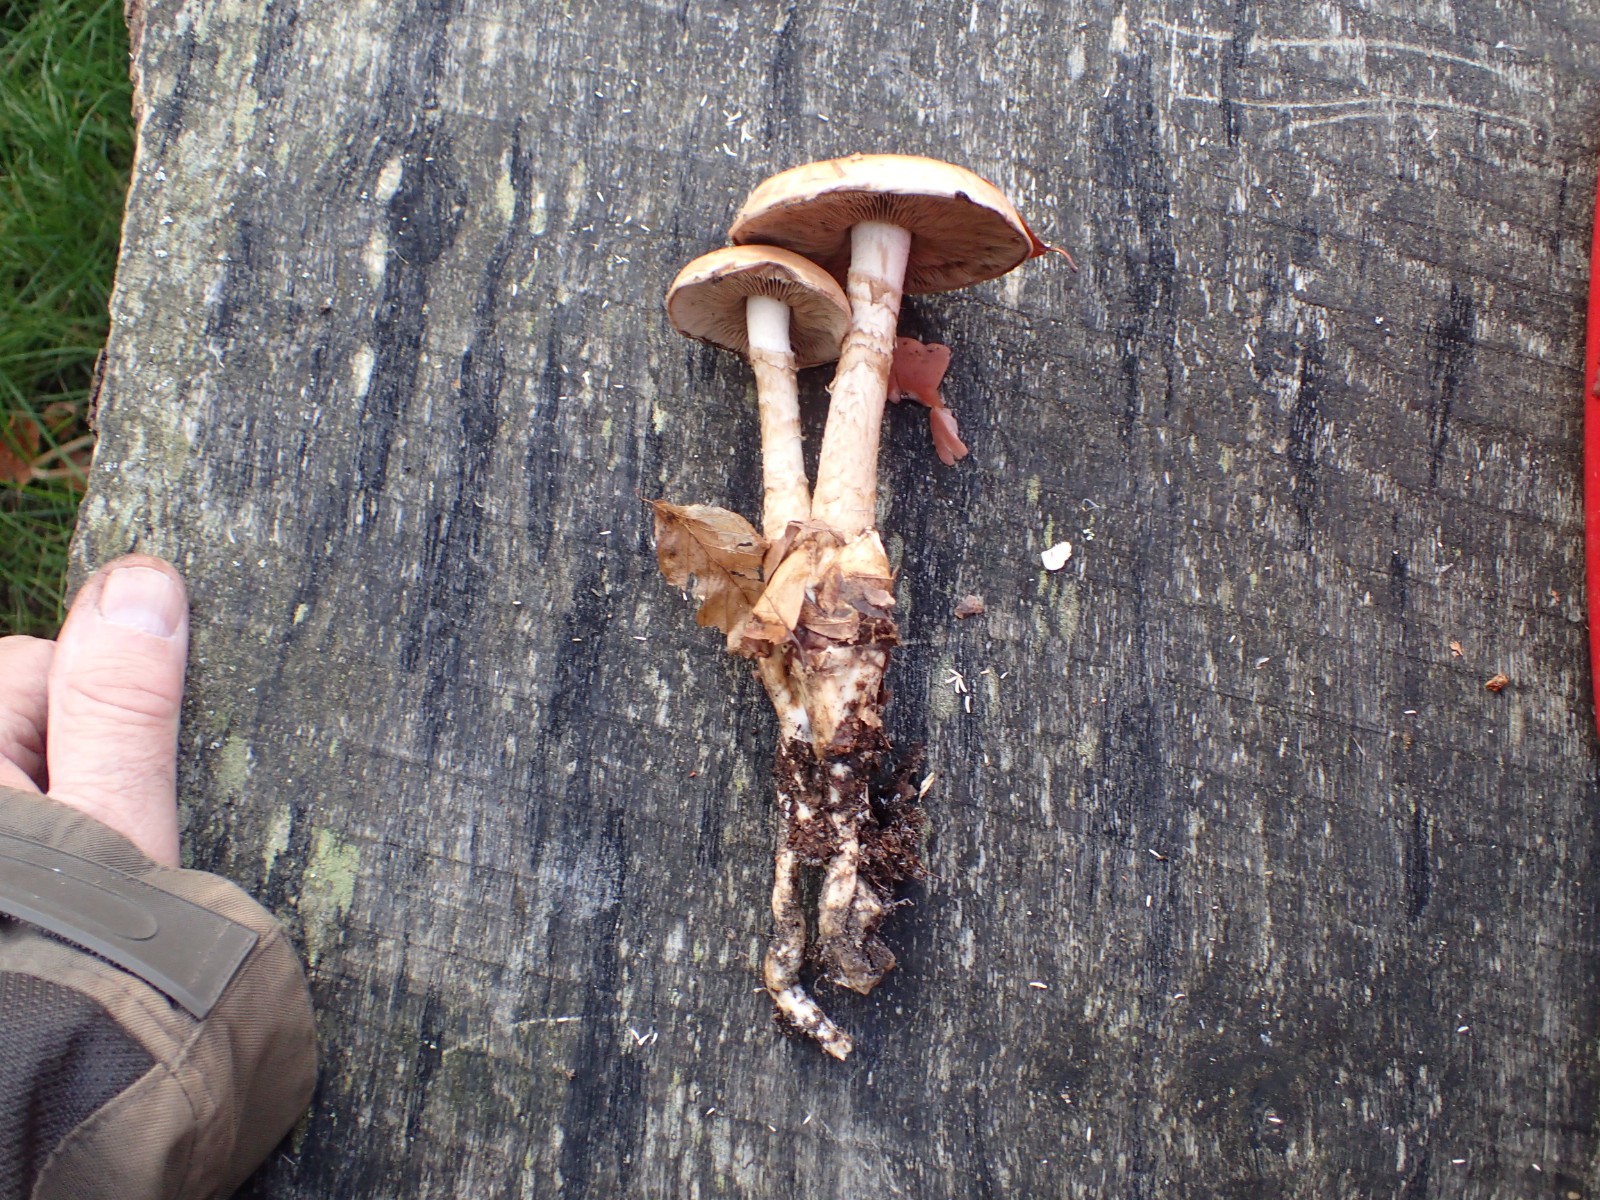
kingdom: Fungi
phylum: Basidiomycota
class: Agaricomycetes
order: Agaricales
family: Hymenogastraceae
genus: Hebeloma
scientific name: Hebeloma radicosum
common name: pælerods-tåreblad
